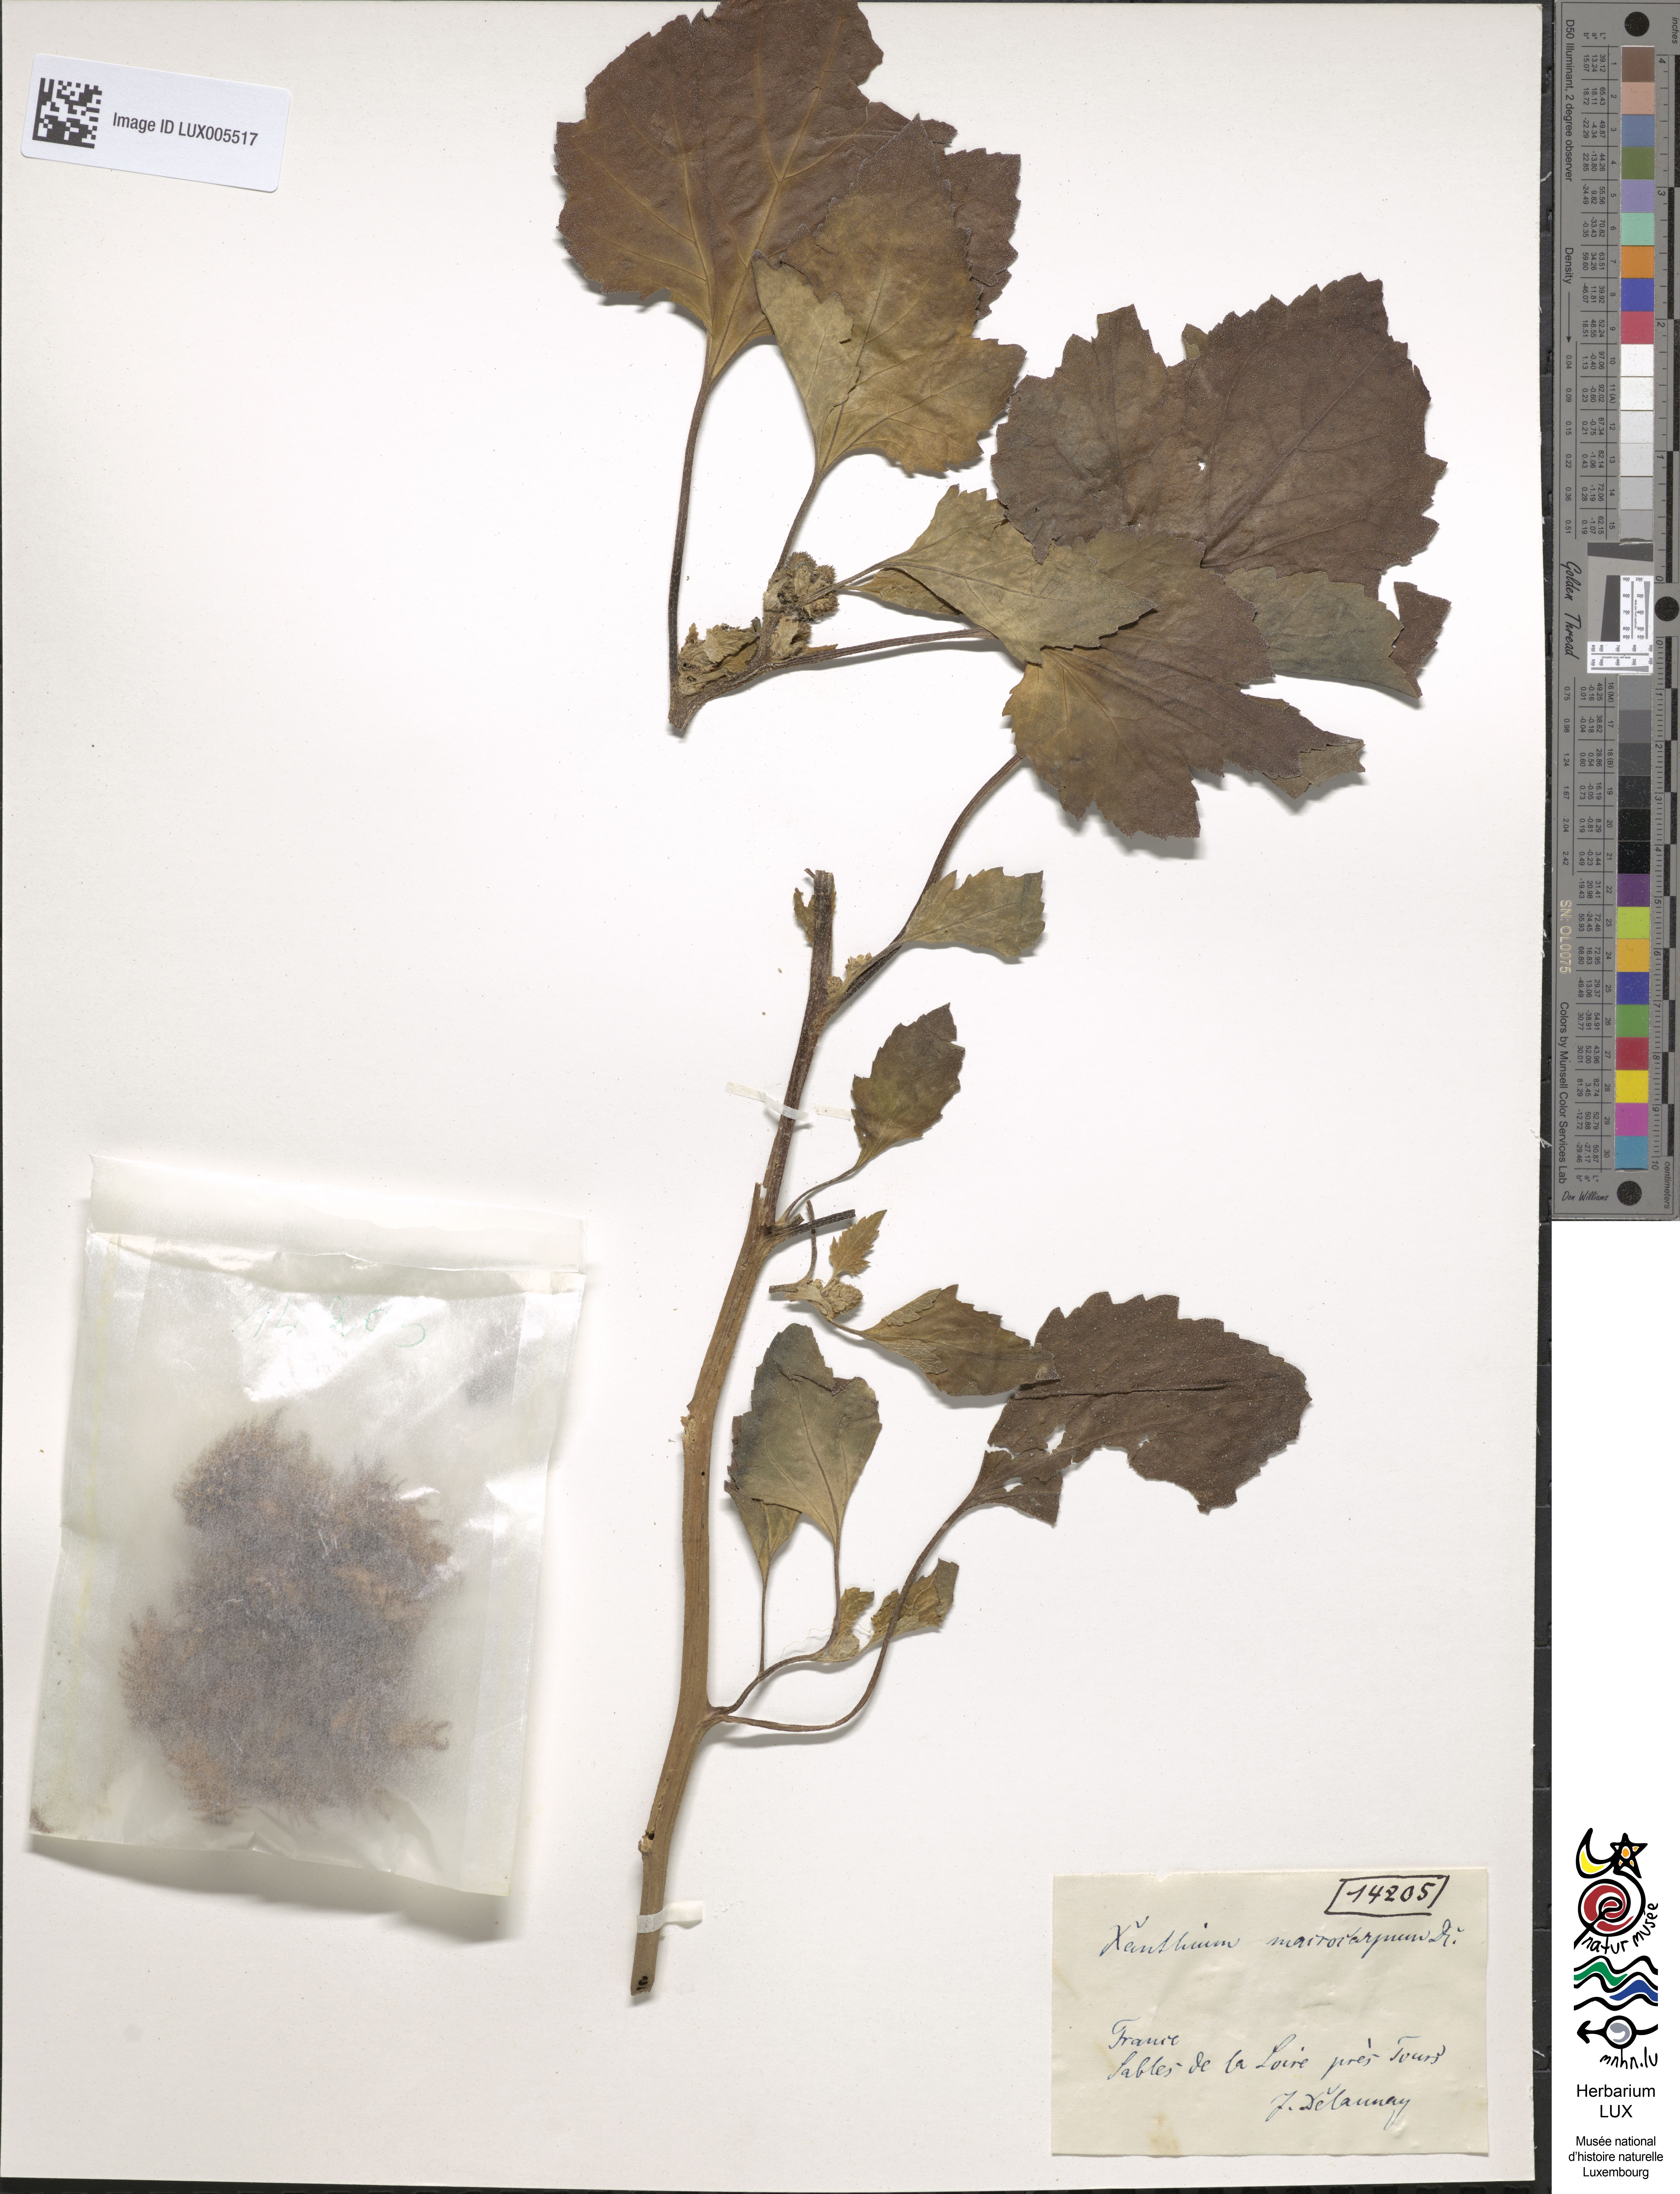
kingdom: Plantae
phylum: Tracheophyta
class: Magnoliopsida
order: Asterales
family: Asteraceae
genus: Xanthium
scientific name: Xanthium orientale
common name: Californian burr
